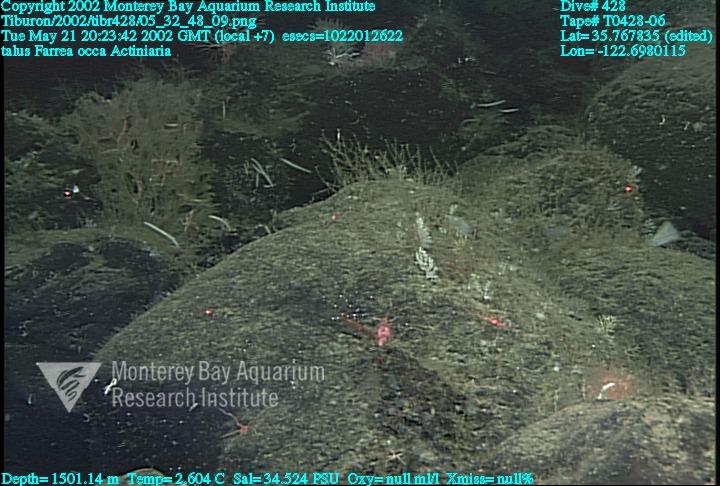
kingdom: Animalia
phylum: Porifera
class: Hexactinellida
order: Sceptrulophora
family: Farreidae
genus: Farrea
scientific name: Farrea occa
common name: Reversed glass sponge
